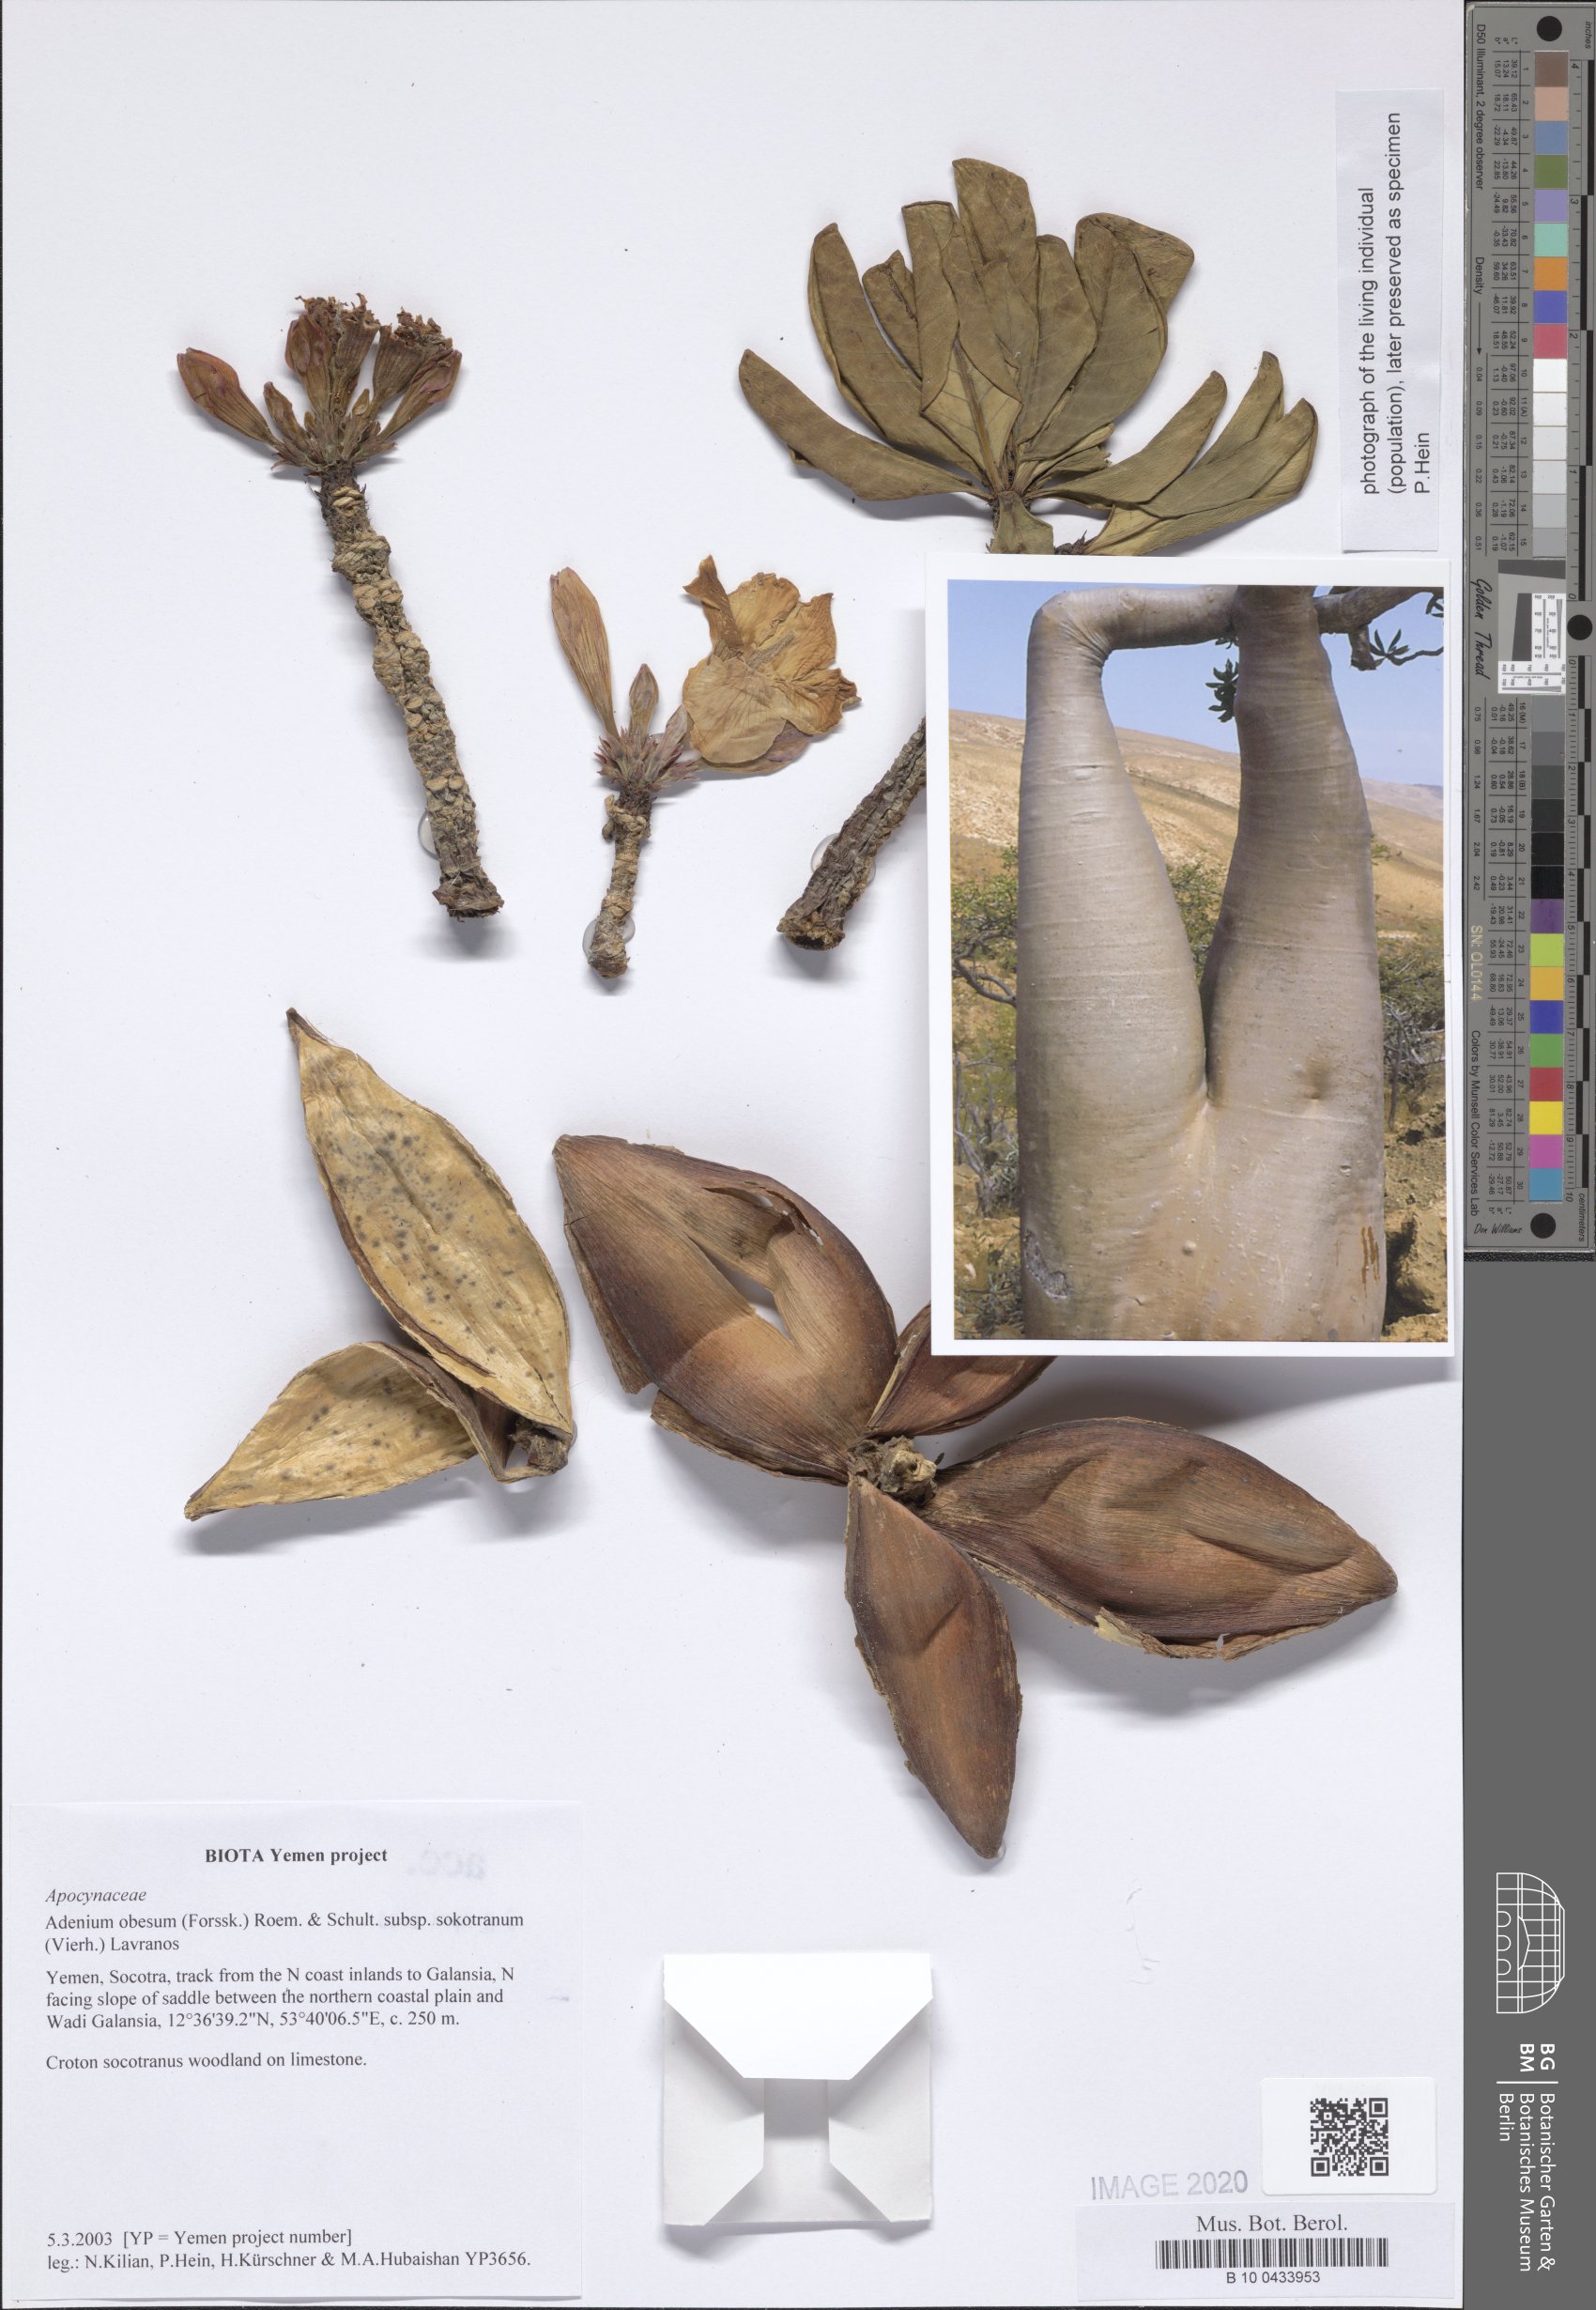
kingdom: Plantae
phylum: Tracheophyta
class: Magnoliopsida
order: Gentianales
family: Apocynaceae
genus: Adenium
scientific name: Adenium obesum
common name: Desert-rose
